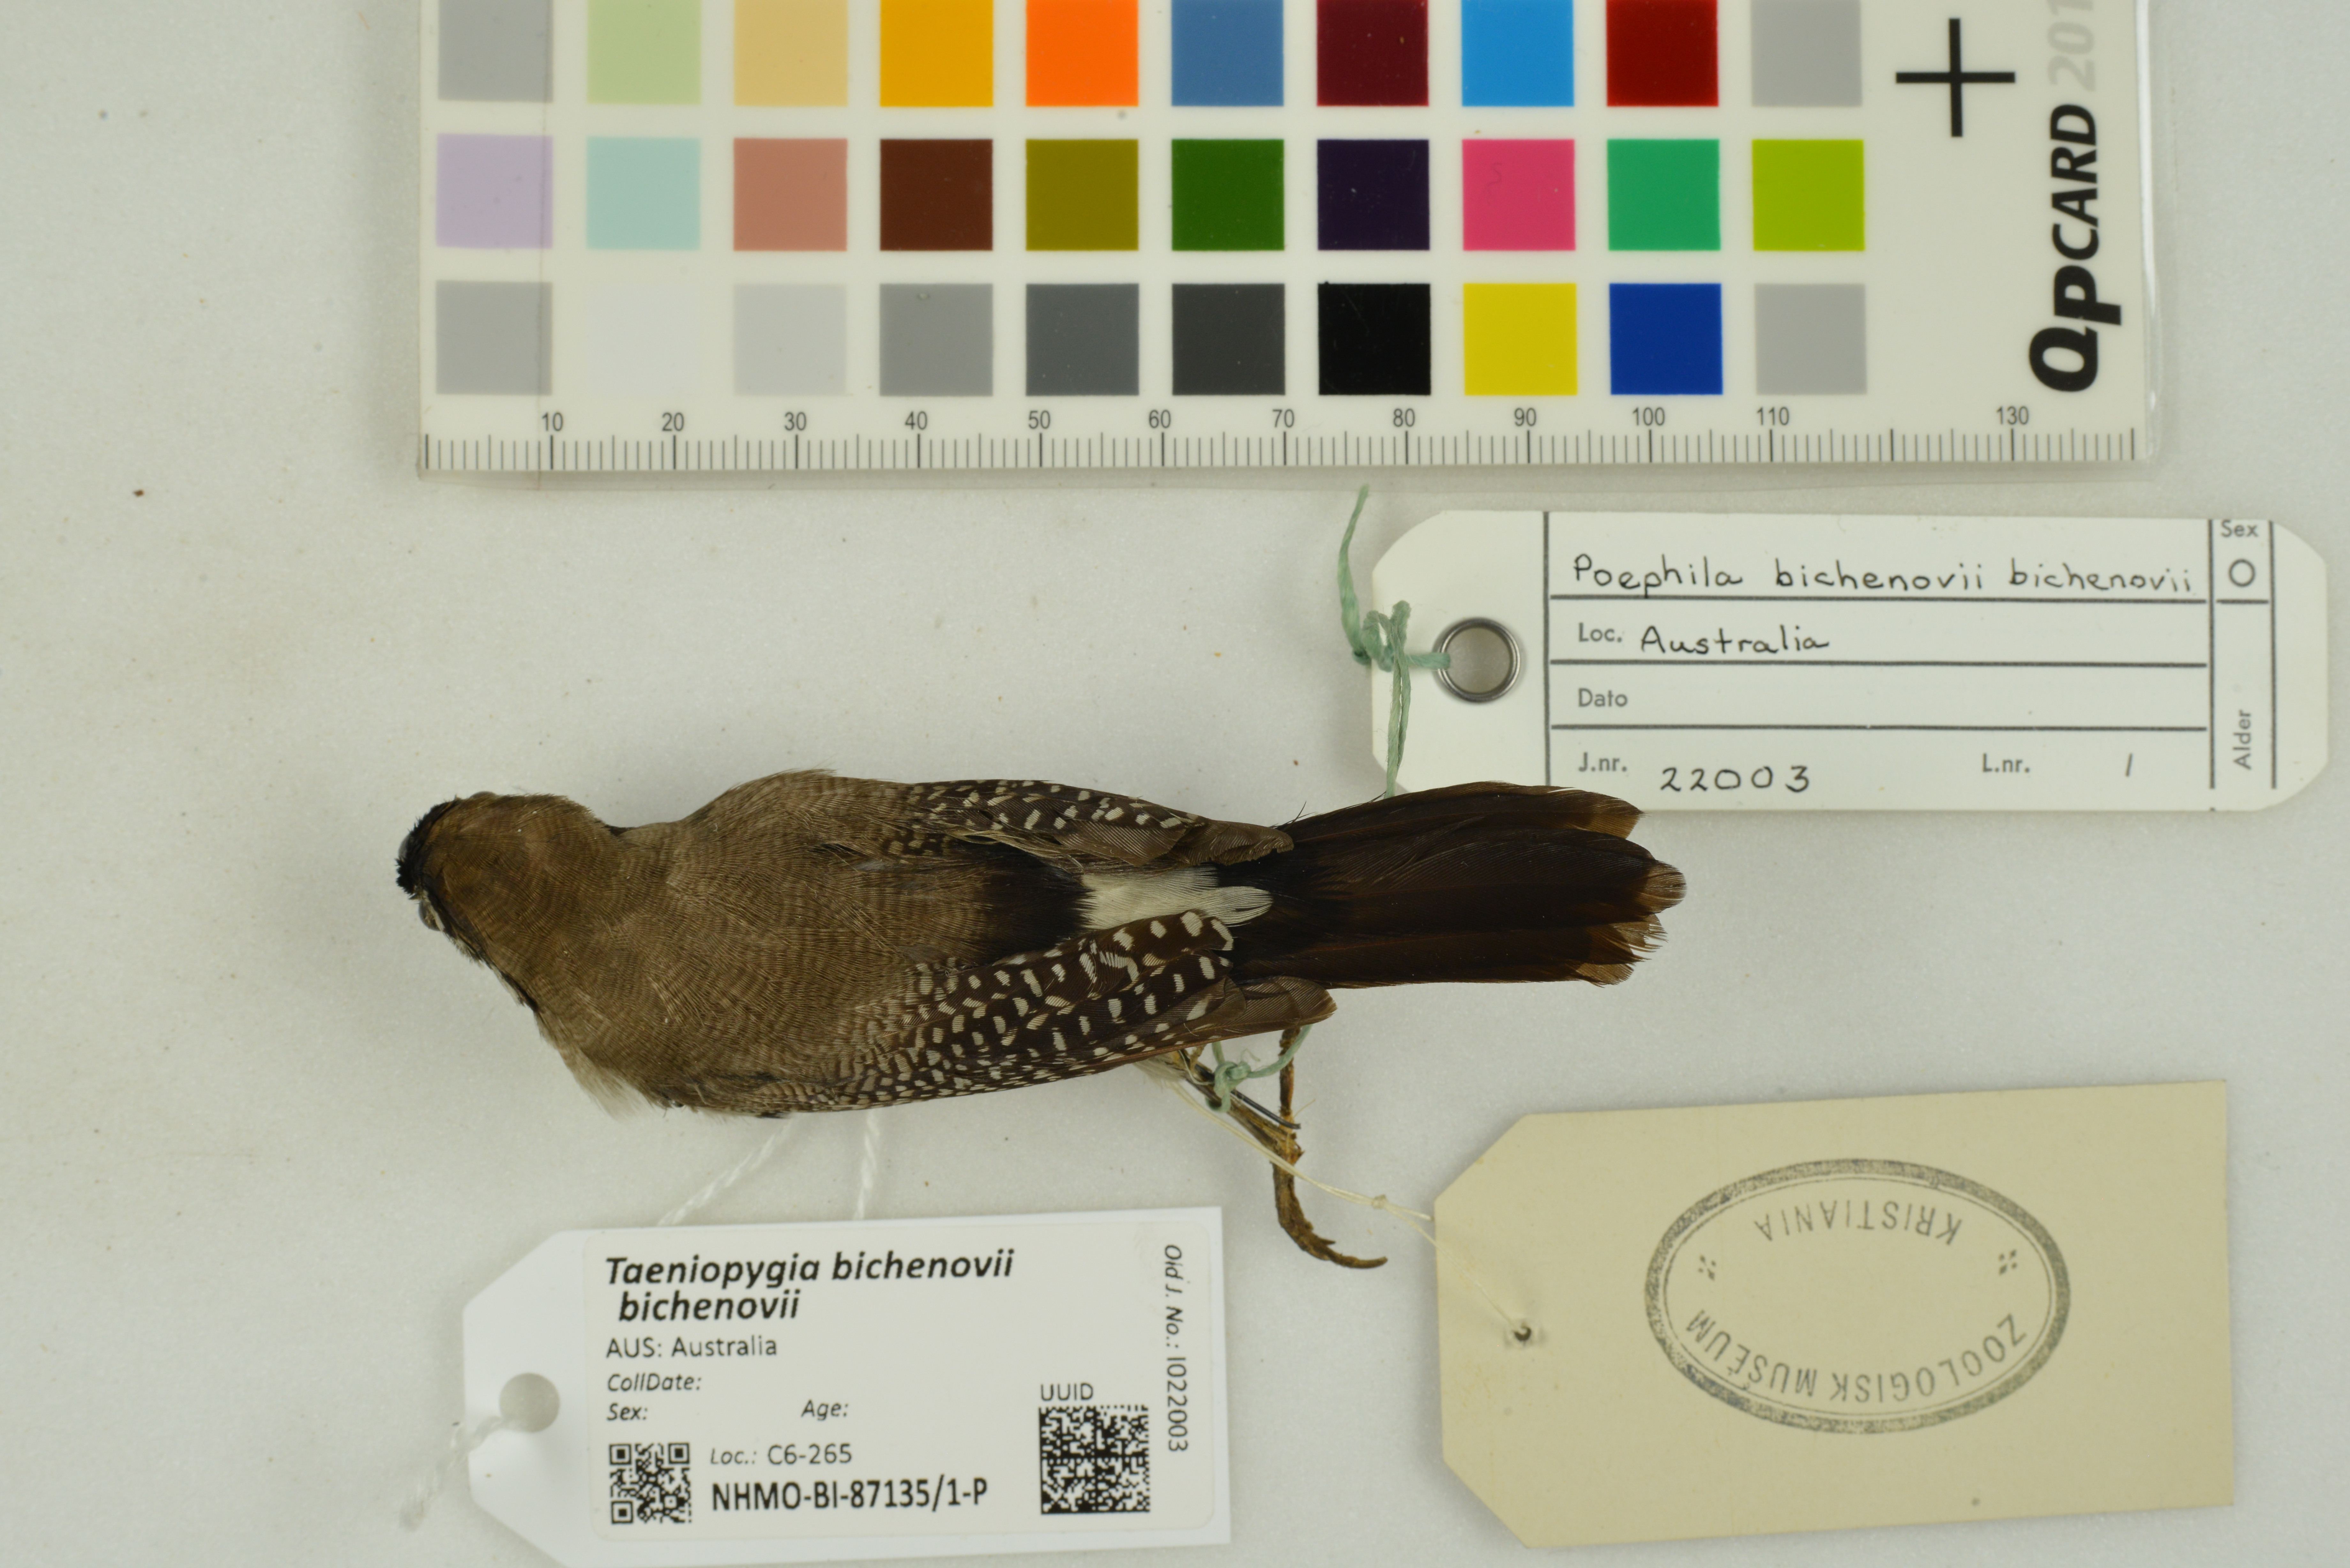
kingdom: Animalia
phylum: Chordata
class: Aves
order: Passeriformes
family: Estrildidae
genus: Taeniopygia
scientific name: Taeniopygia bichenovii
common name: Double-barred finch
